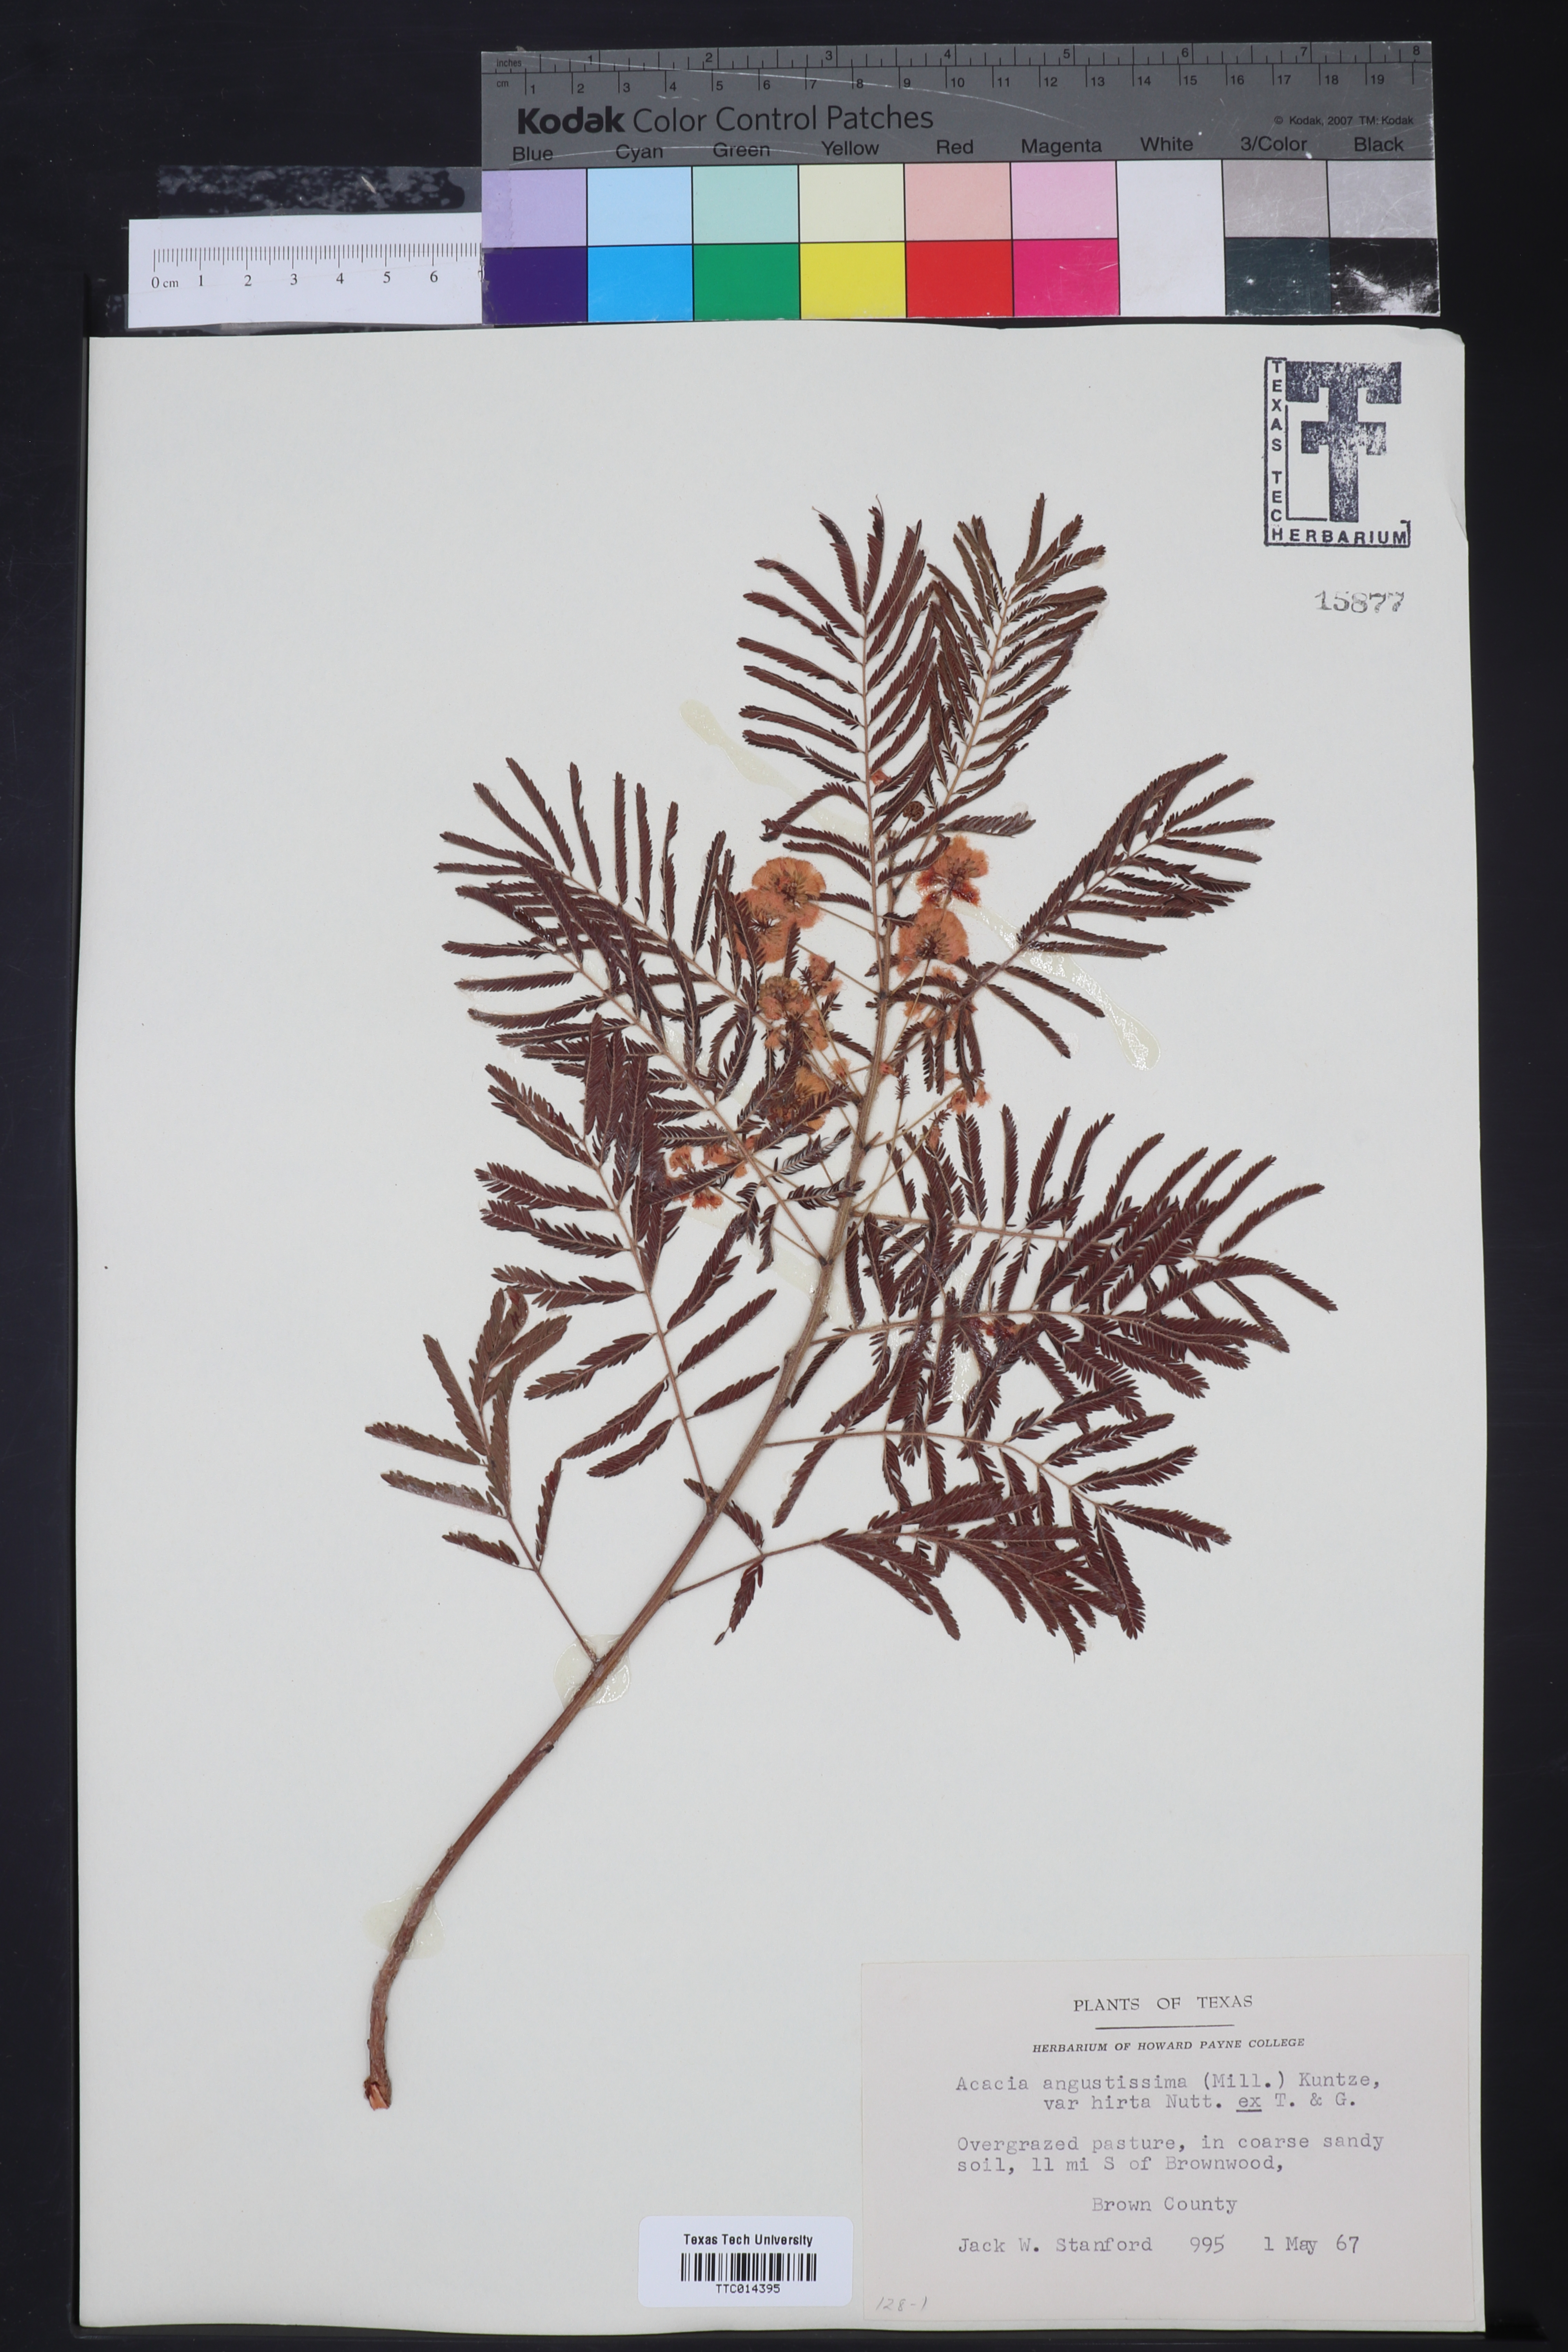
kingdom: Plantae
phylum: Tracheophyta
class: Magnoliopsida
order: Fabales
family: Fabaceae
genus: Acaciella
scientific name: Acaciella angustissima
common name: Prairie acacia
